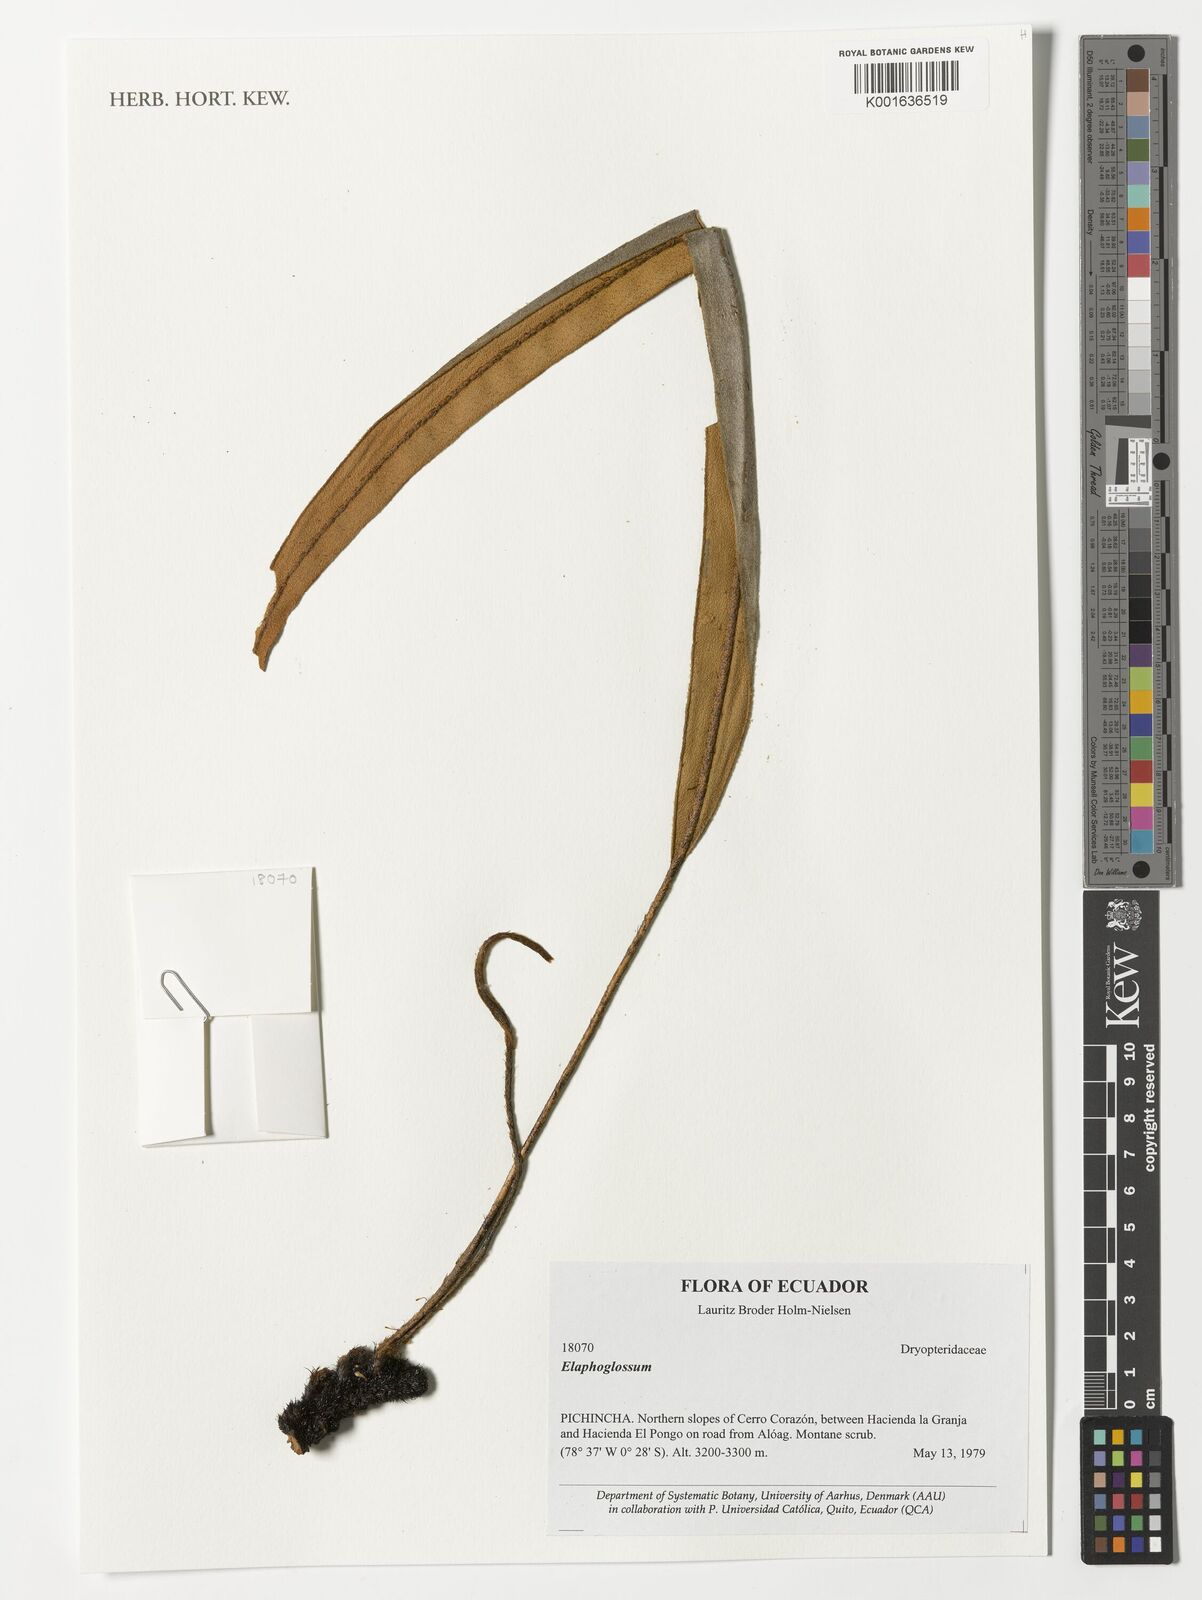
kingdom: Plantae
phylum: Tracheophyta
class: Polypodiopsida
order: Polypodiales
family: Dryopteridaceae
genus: Elaphoglossum
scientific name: Elaphoglossum
